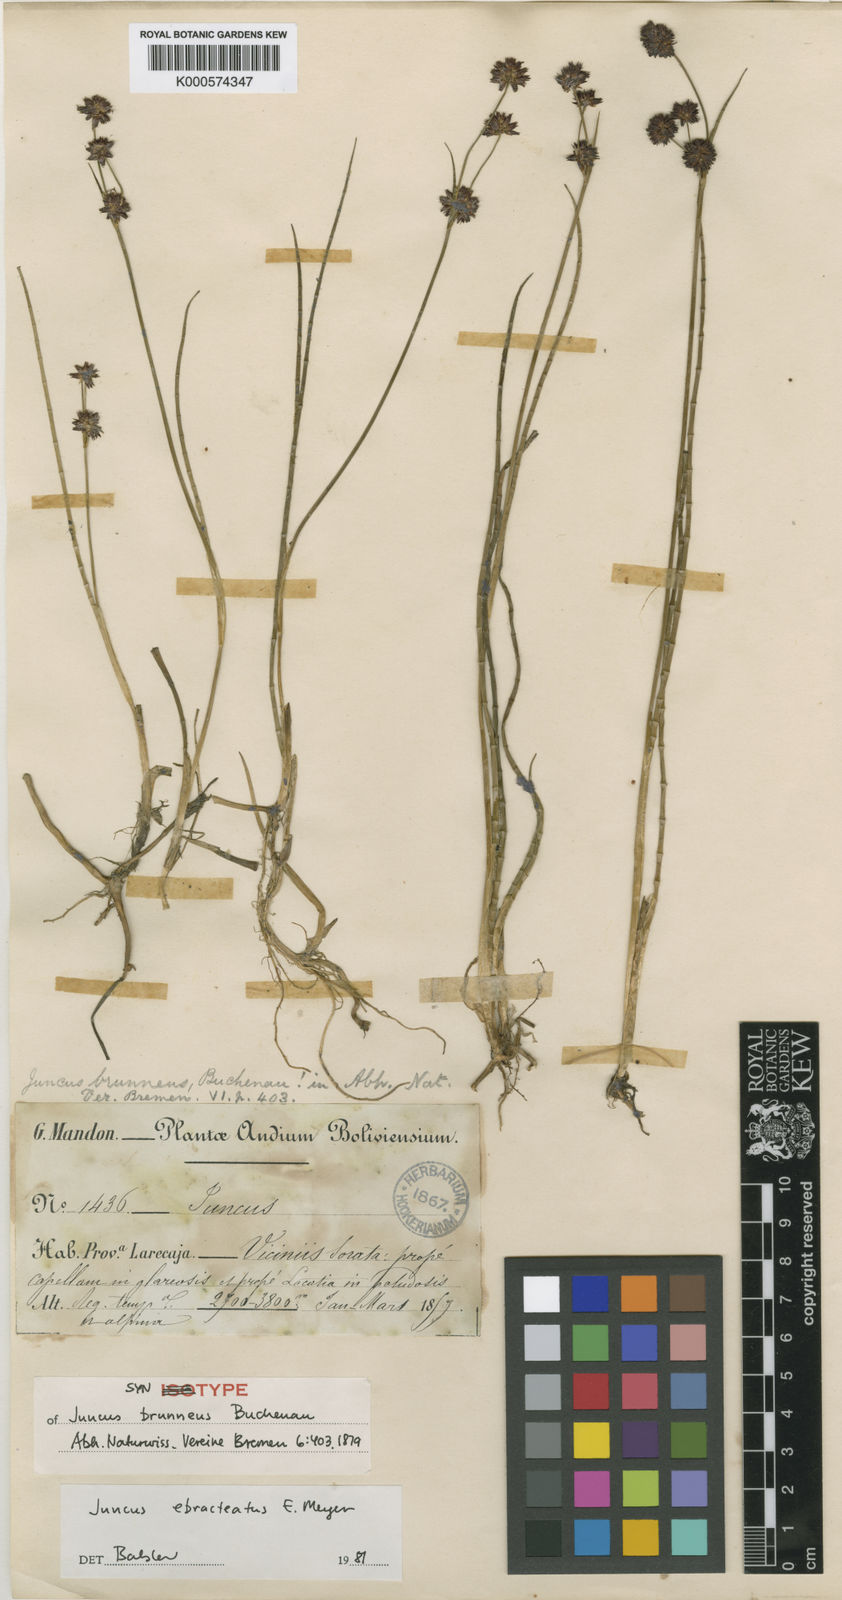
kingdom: Plantae
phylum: Tracheophyta
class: Liliopsida
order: Poales
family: Juncaceae
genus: Juncus
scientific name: Juncus ebracteatus
